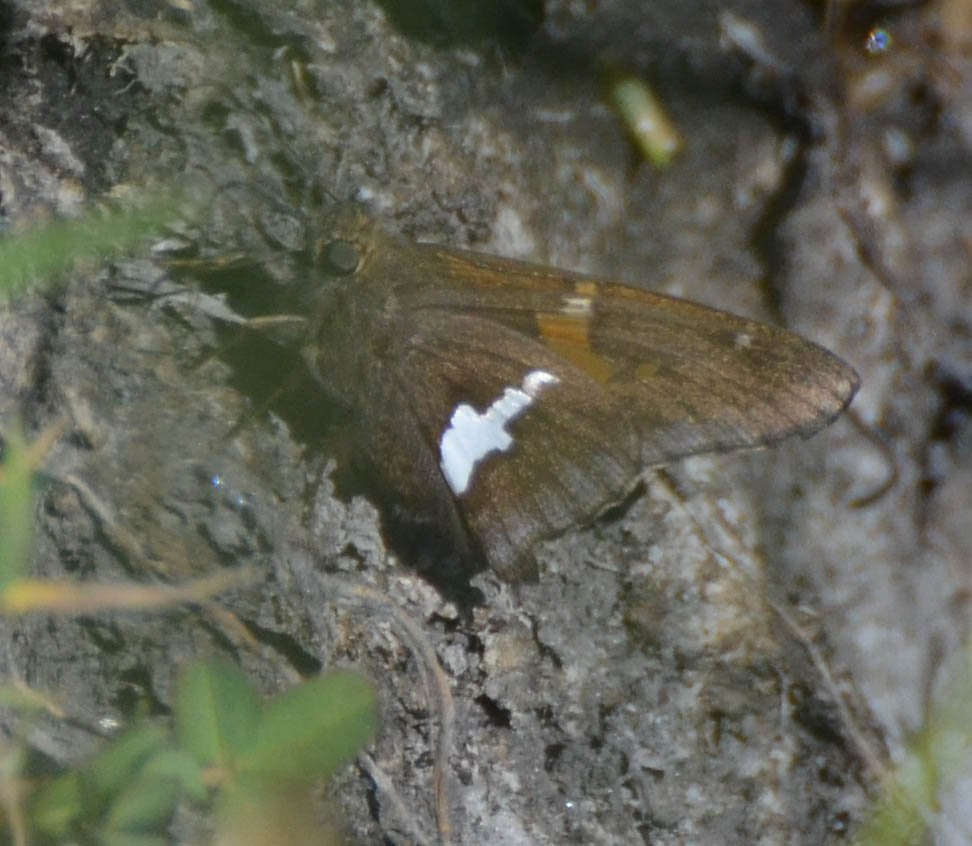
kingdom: Animalia
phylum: Arthropoda
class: Insecta
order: Lepidoptera
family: Hesperiidae
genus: Epargyreus
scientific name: Epargyreus clarus
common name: Silver-spotted Skipper
